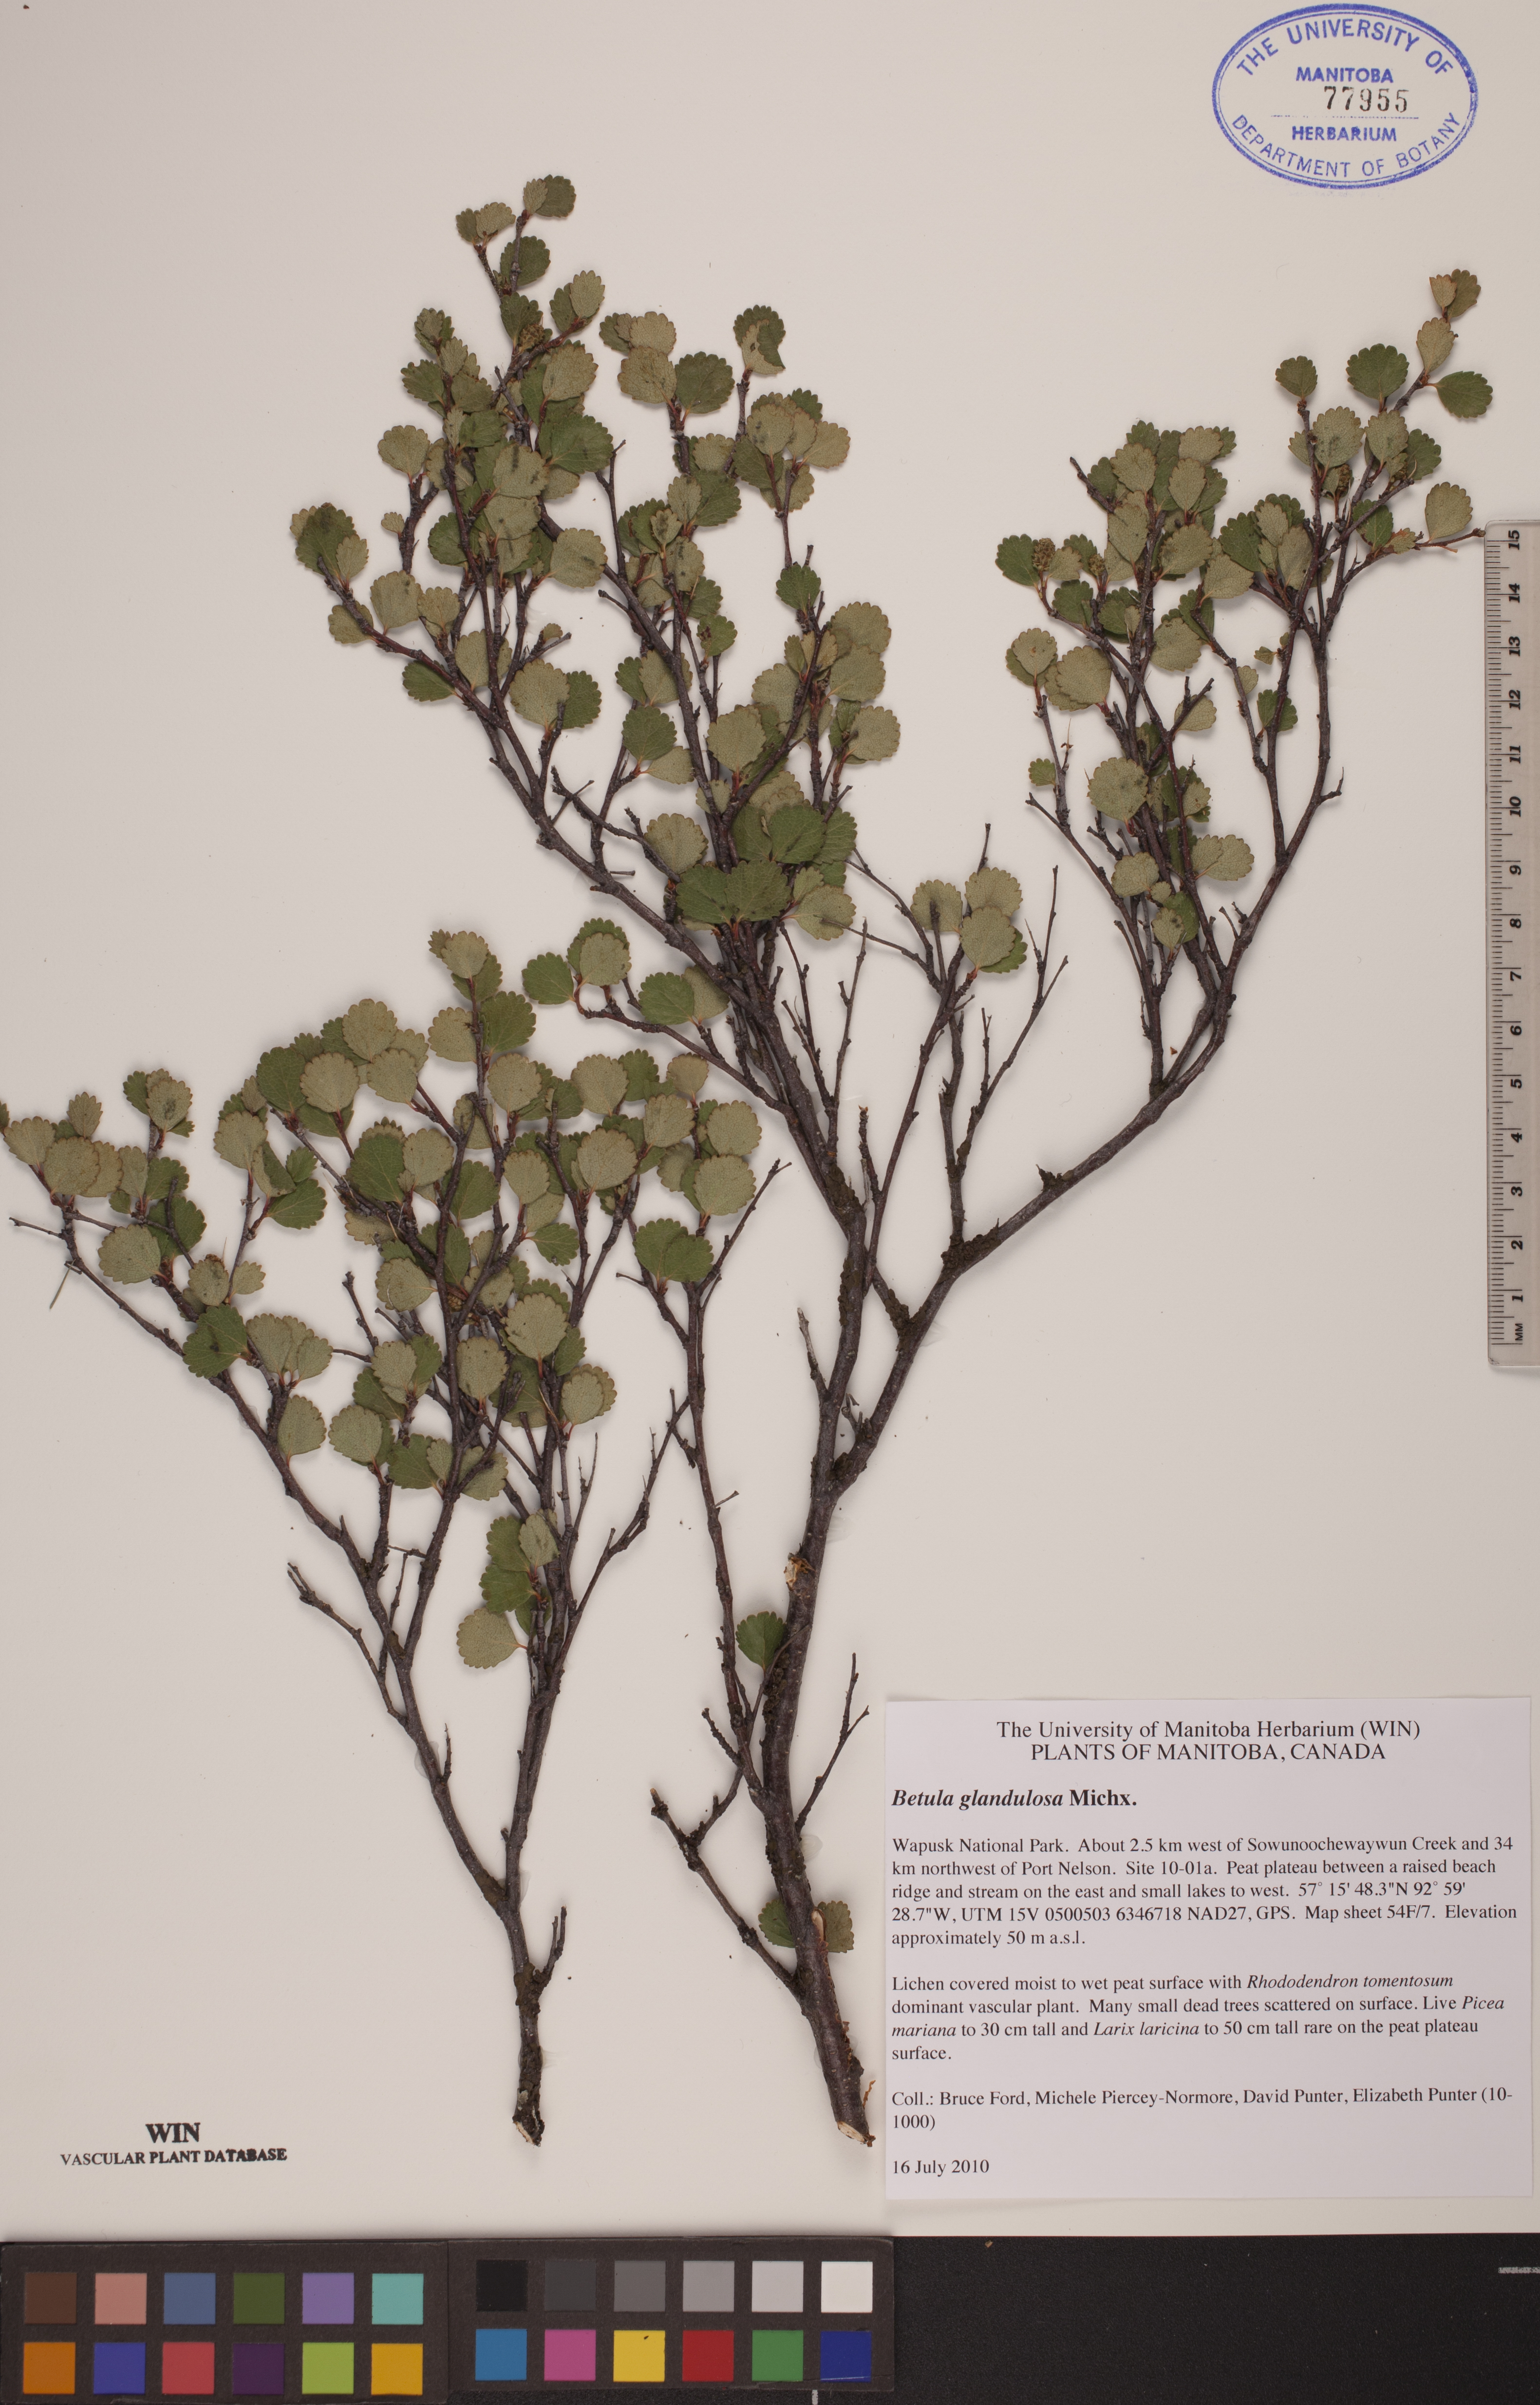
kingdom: Plantae
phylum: Tracheophyta
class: Magnoliopsida
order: Fagales
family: Betulaceae
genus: Betula
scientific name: Betula glandulosa
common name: Dwarf birch
